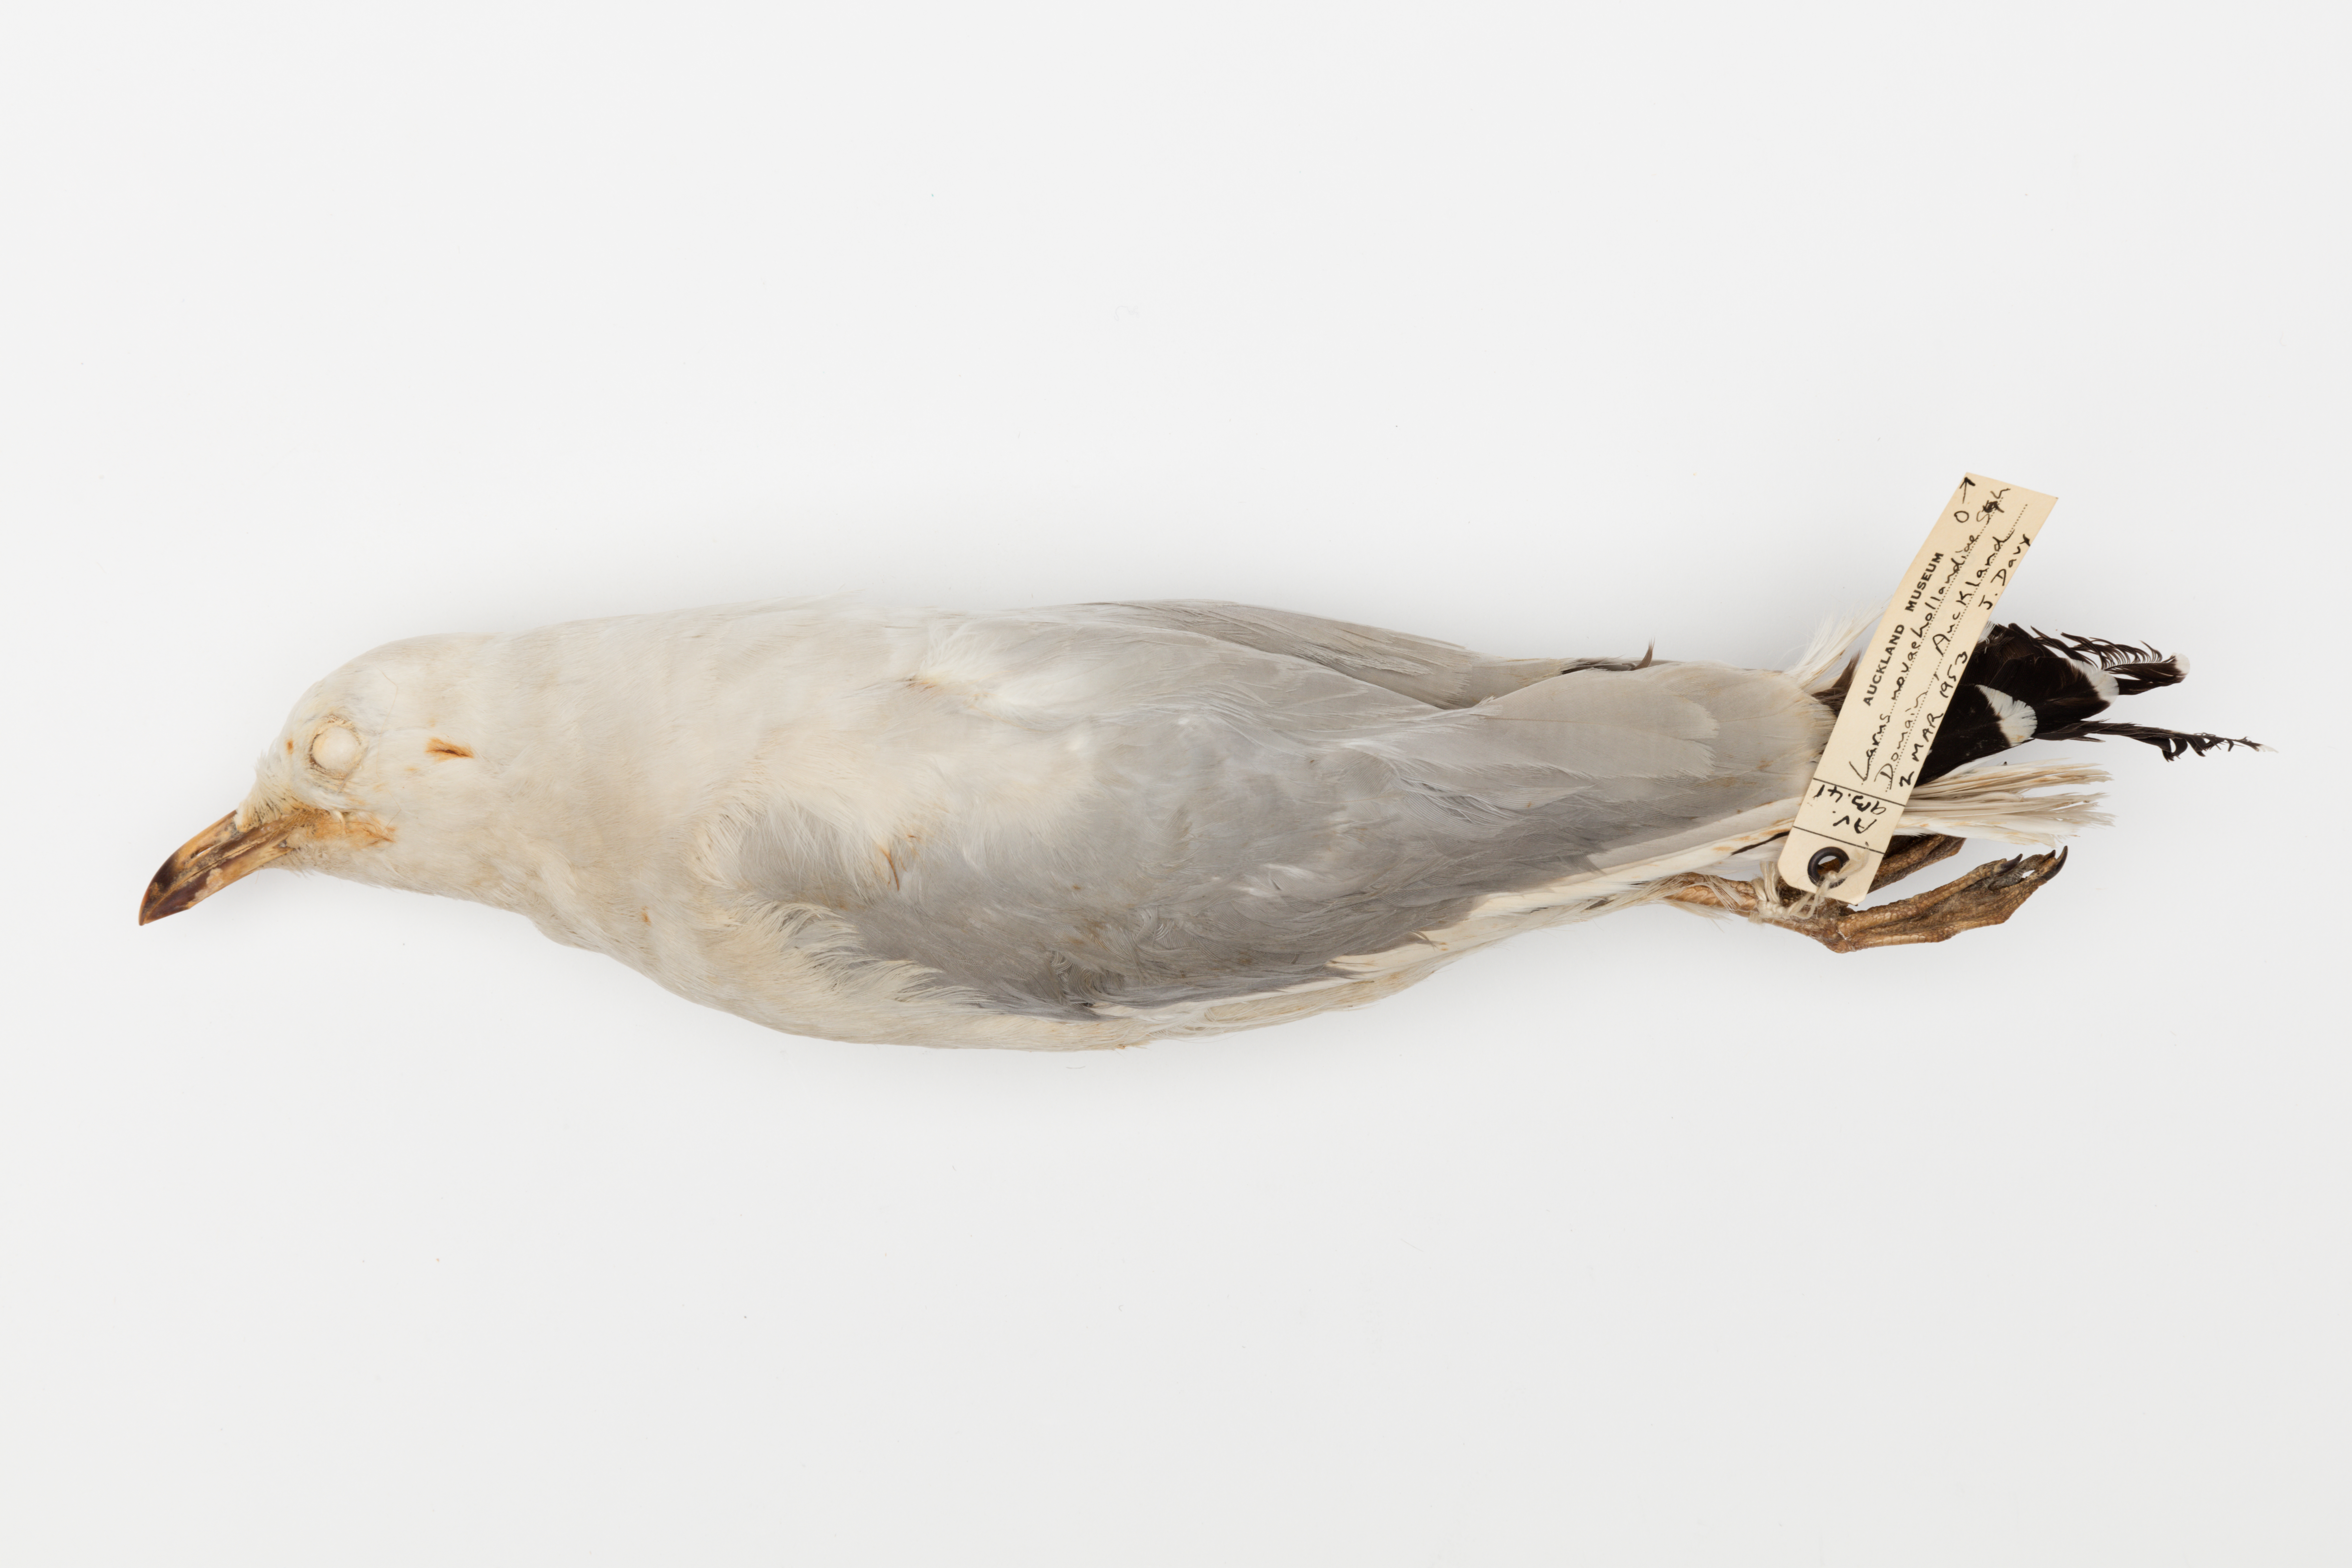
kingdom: Animalia
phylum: Chordata
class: Aves
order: Charadriiformes
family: Laridae
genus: Chroicocephalus
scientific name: Chroicocephalus novaehollandiae
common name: Silver gull
